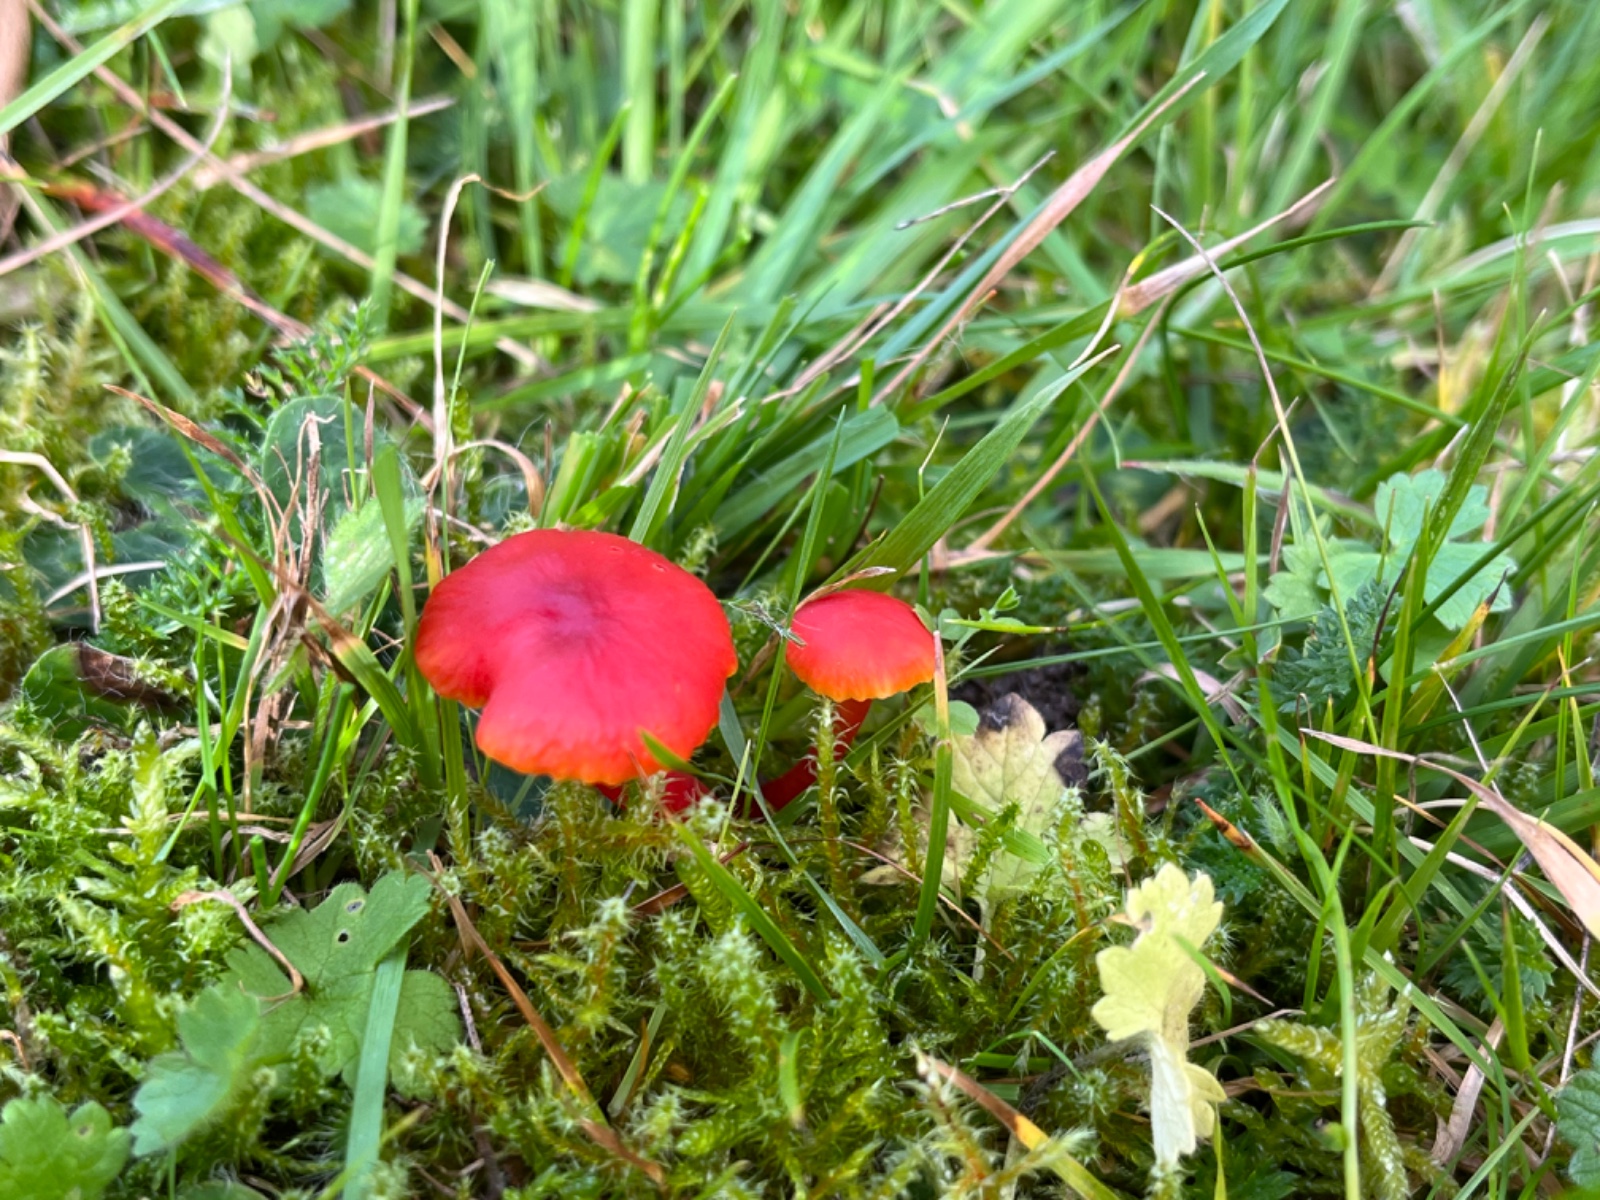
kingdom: Fungi
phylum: Basidiomycota
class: Agaricomycetes
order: Agaricales
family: Hygrophoraceae
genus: Hygrocybe
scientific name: Hygrocybe phaeococcinea
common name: sortdugget vokshat
